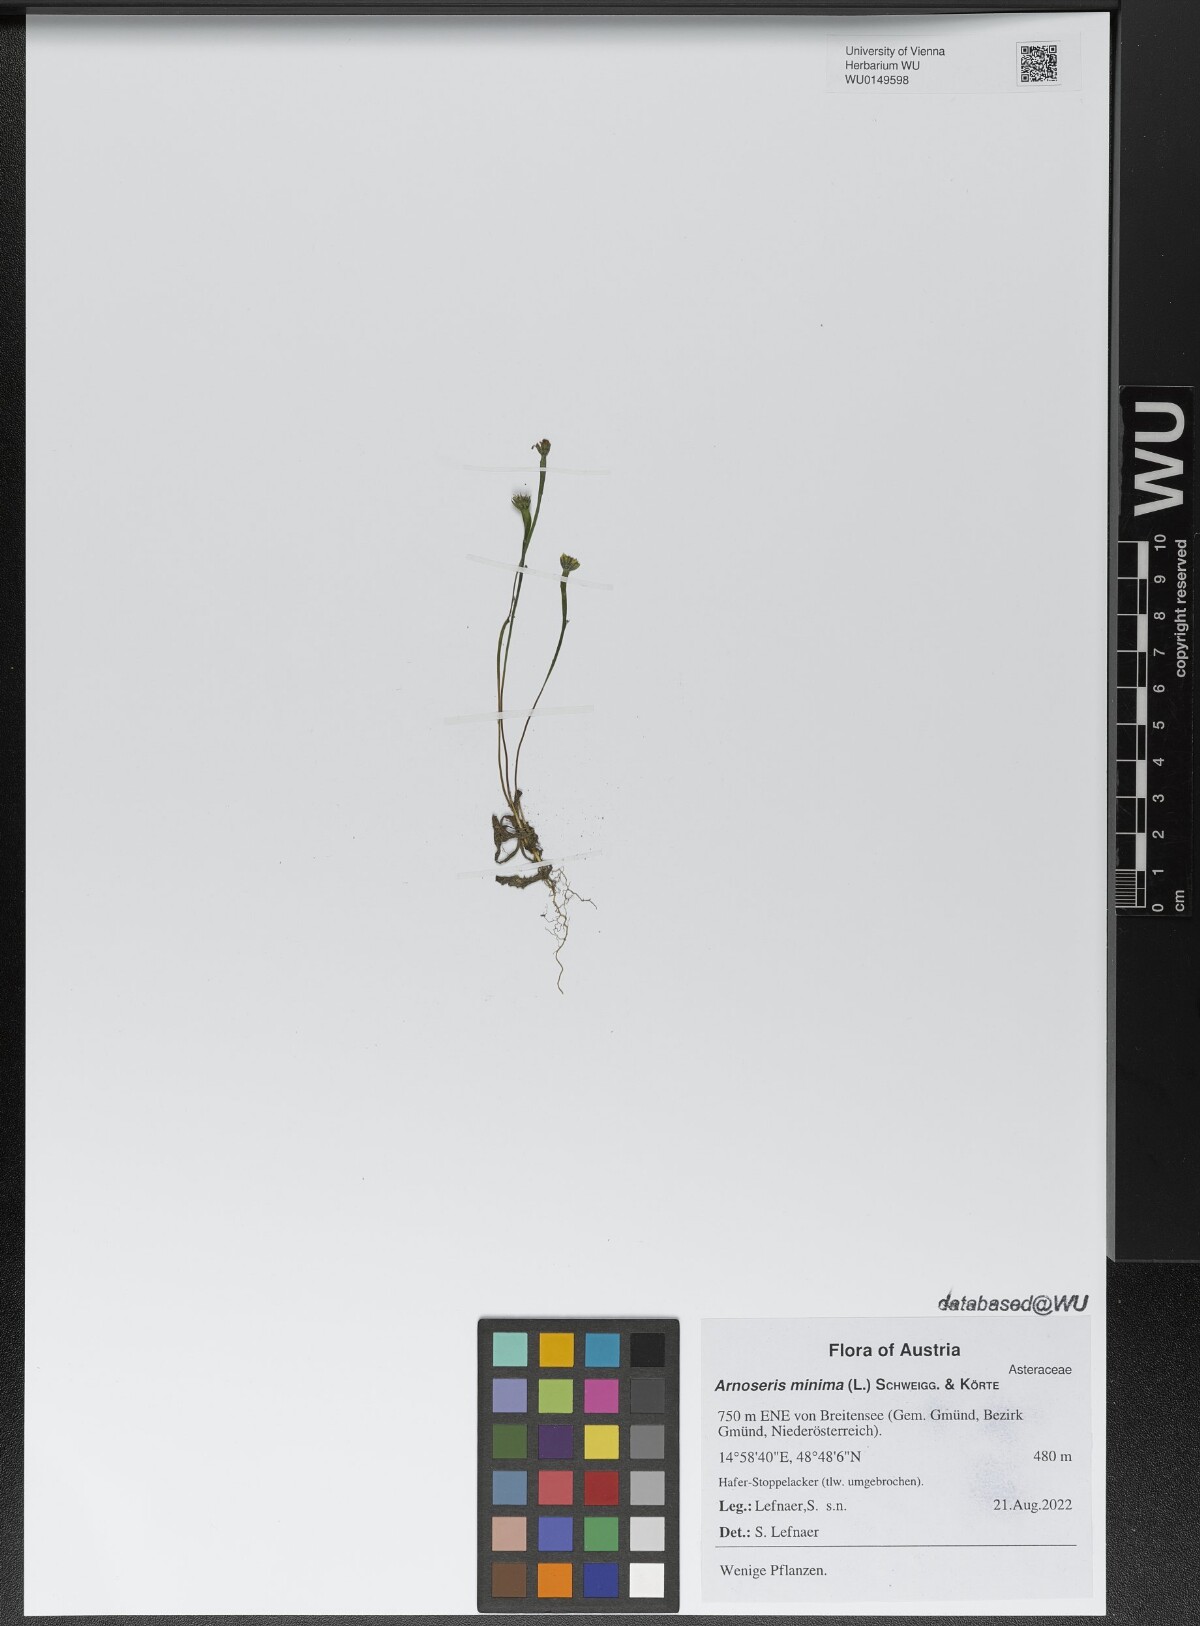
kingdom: Plantae
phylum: Tracheophyta
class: Magnoliopsida
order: Asterales
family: Asteraceae
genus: Arnoseris
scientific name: Arnoseris minima
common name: Lamb's succory
